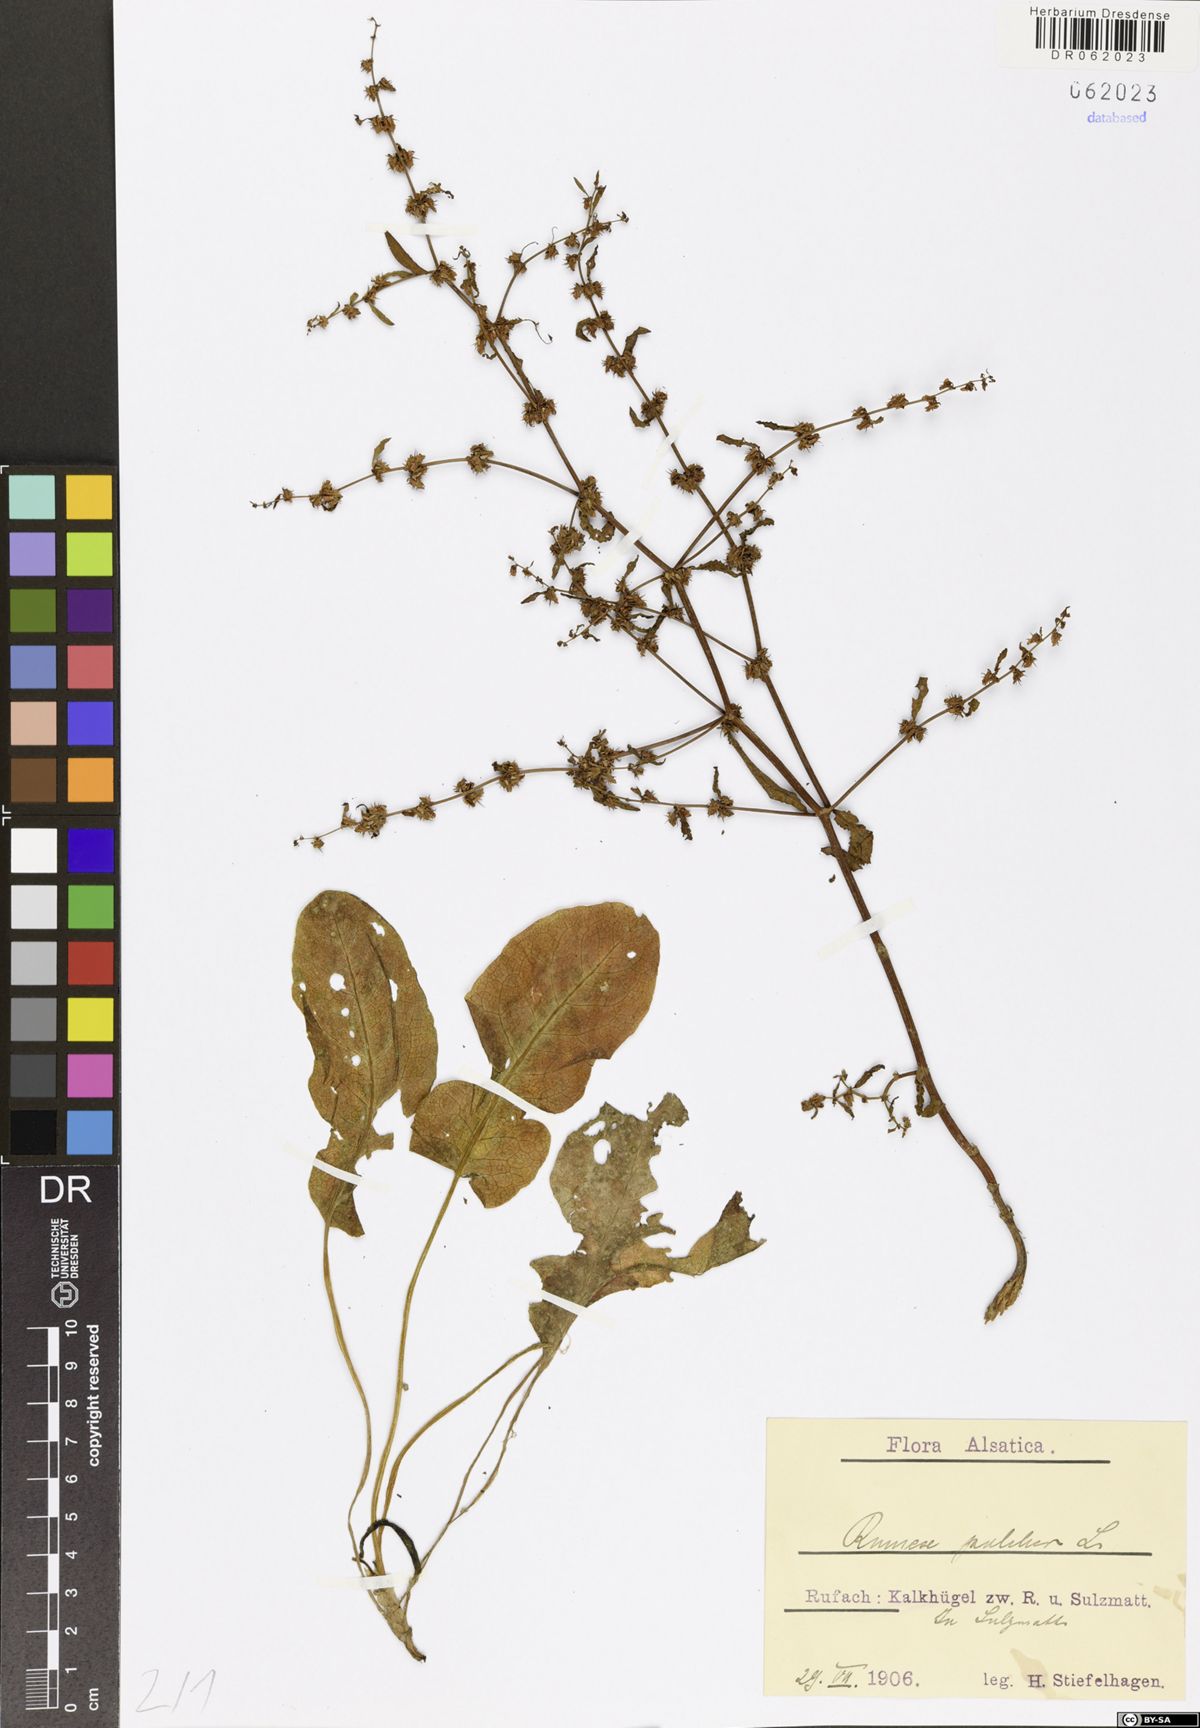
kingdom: Plantae
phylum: Tracheophyta
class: Magnoliopsida
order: Caryophyllales
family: Polygonaceae
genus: Rumex
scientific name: Rumex pulcher
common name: Fiddle dock
